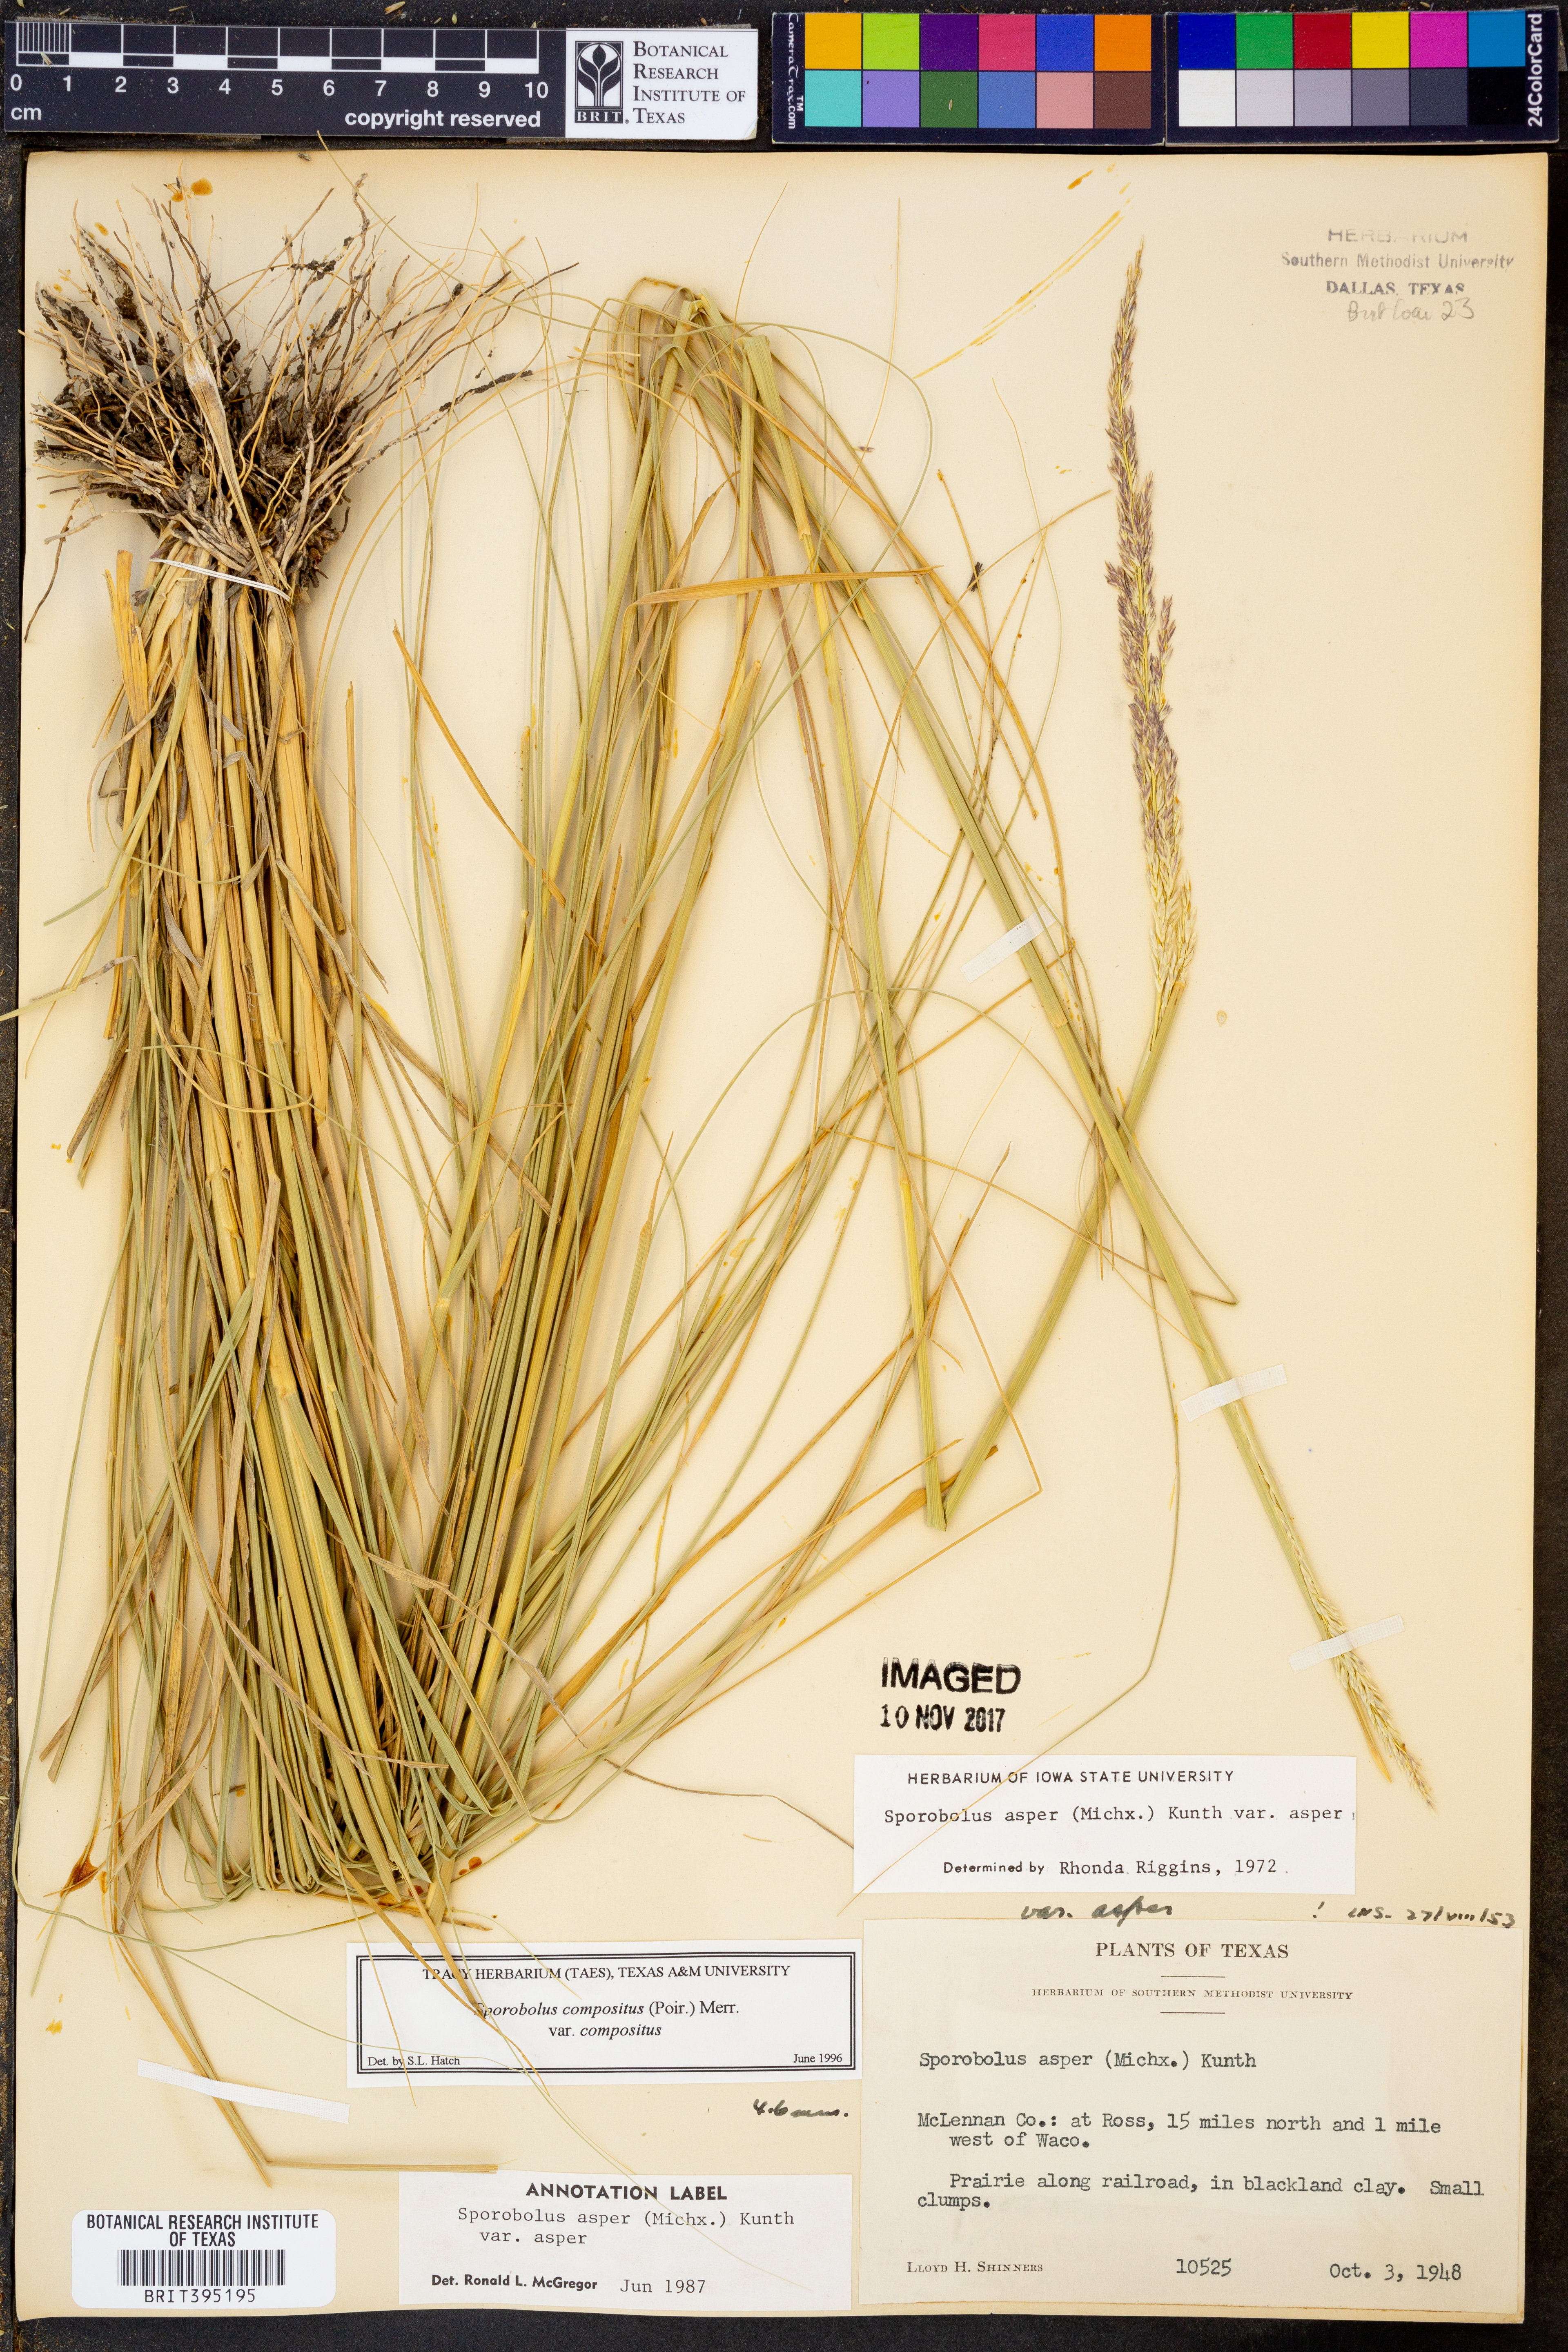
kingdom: Plantae
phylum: Tracheophyta
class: Liliopsida
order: Poales
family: Poaceae
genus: Sporobolus
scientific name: Sporobolus compositus
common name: Rough dropseed
